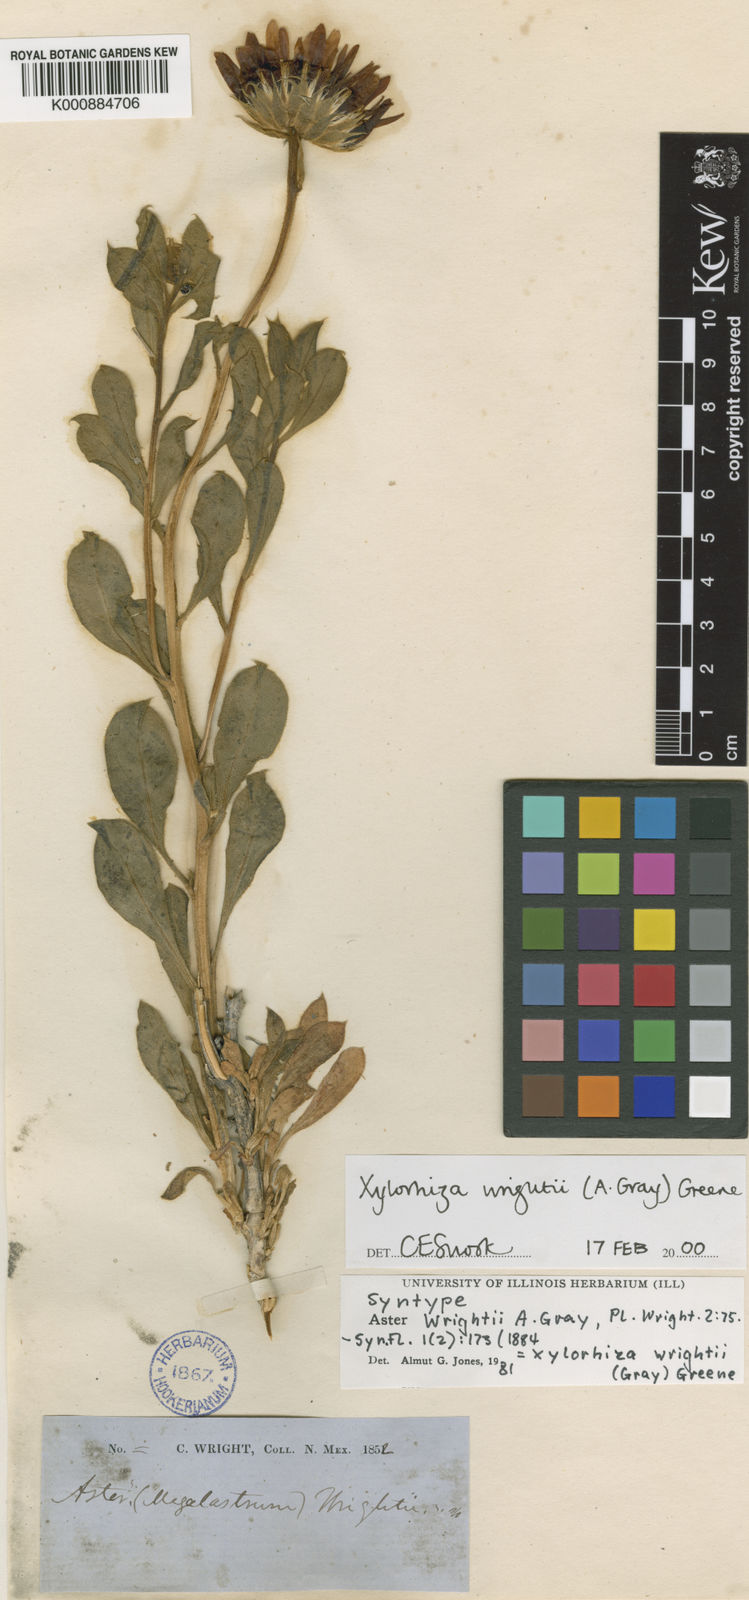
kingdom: Plantae
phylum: Tracheophyta
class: Magnoliopsida
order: Asterales
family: Asteraceae
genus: Xylorhiza
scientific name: Xylorhiza
